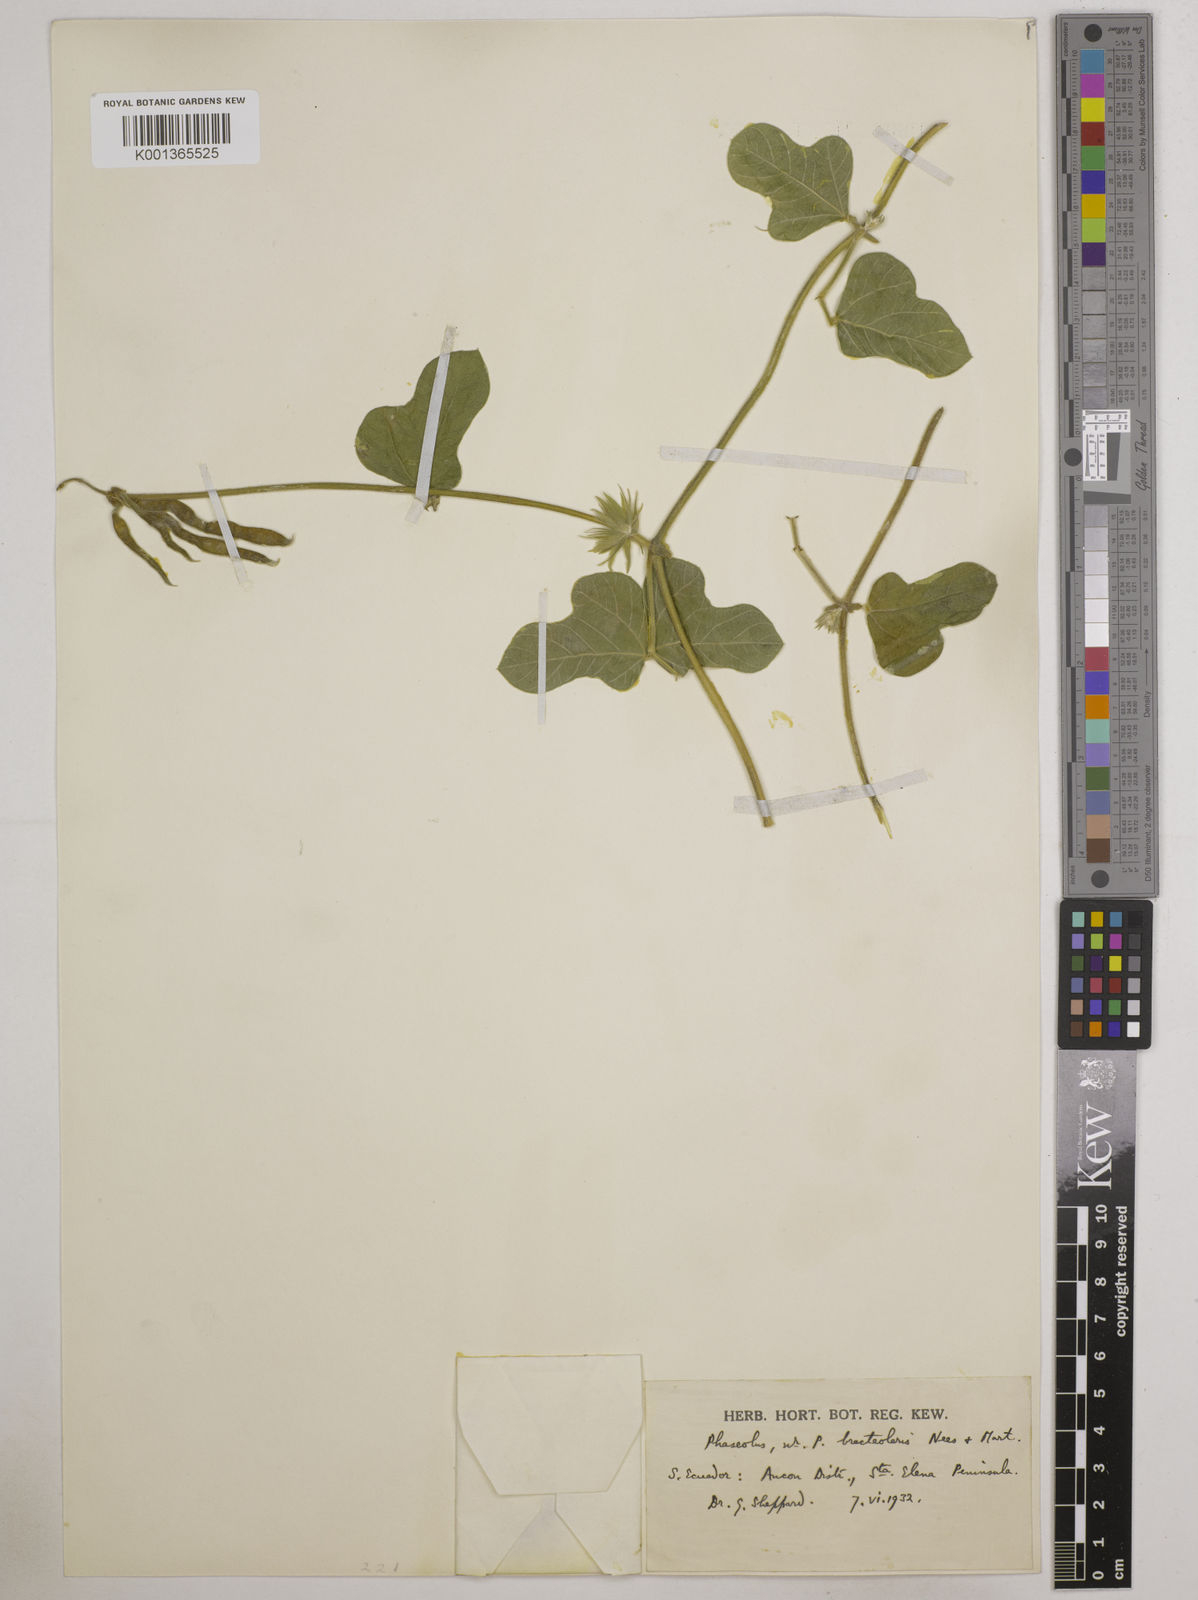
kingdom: Plantae
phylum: Tracheophyta
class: Magnoliopsida
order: Fabales
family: Fabaceae
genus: Macroptilium
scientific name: Macroptilium bracteatum
